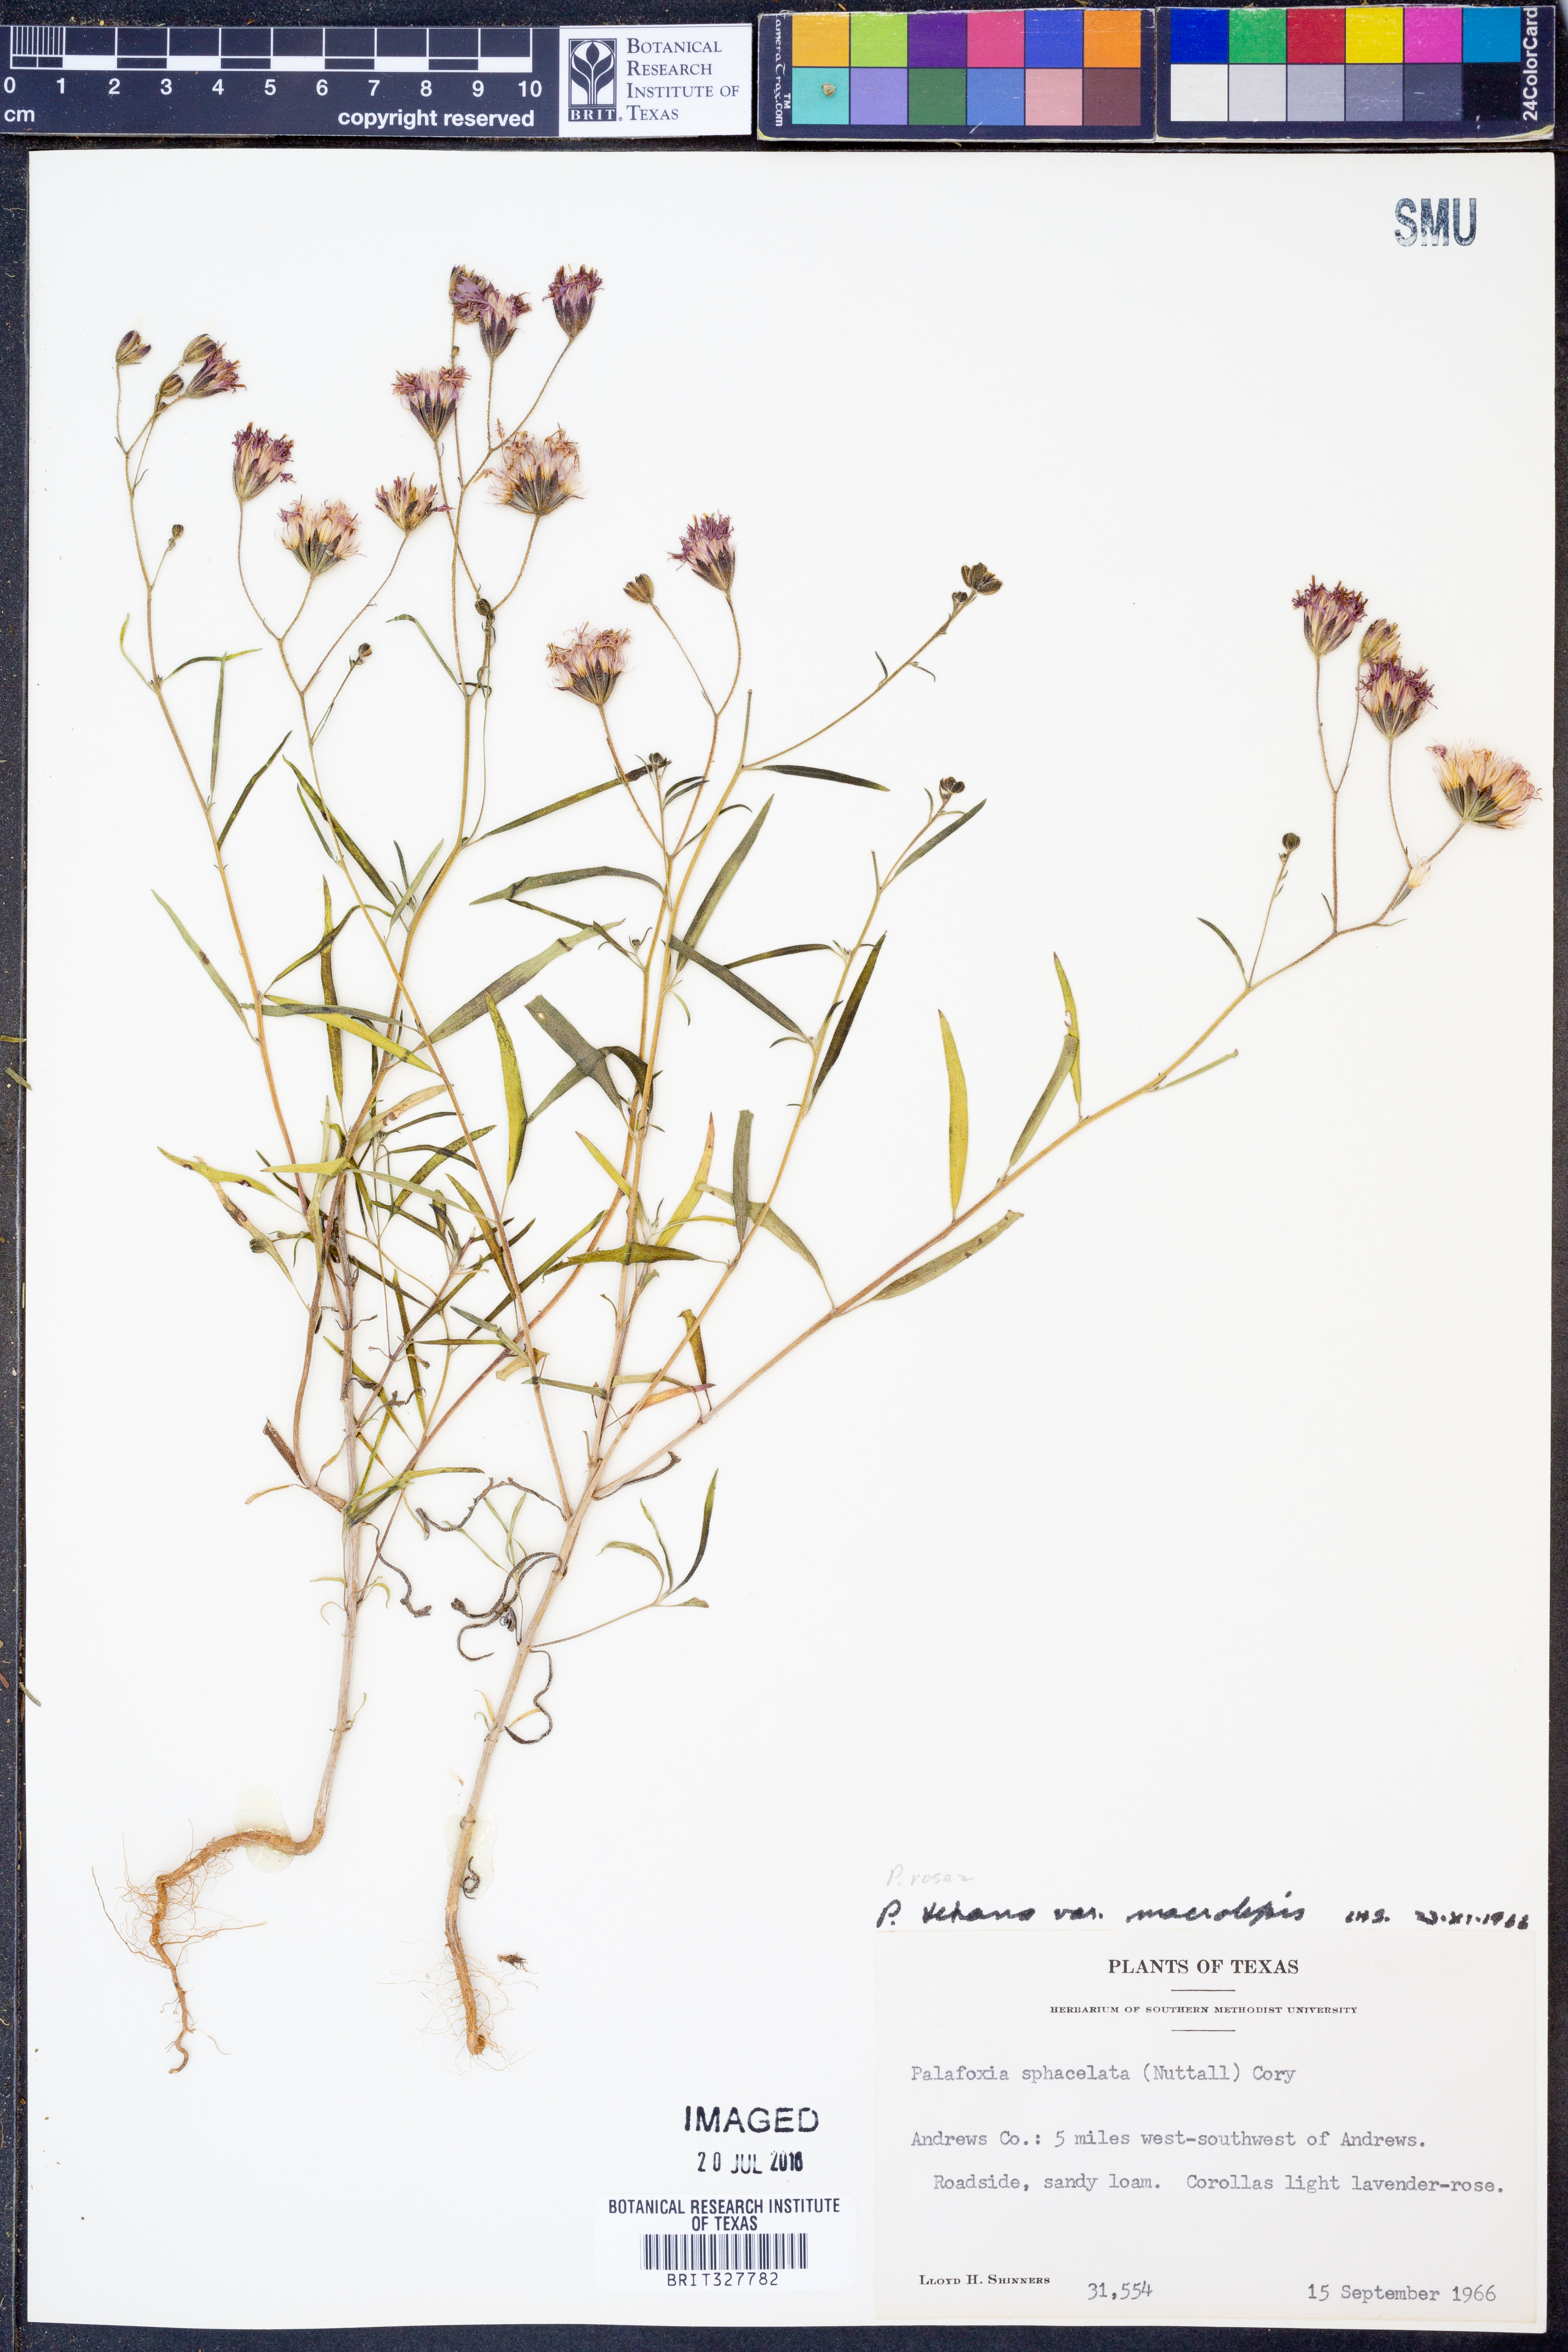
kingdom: Plantae
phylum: Tracheophyta
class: Magnoliopsida
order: Asterales
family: Asteraceae
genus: Palafoxia
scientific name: Palafoxia rosea
